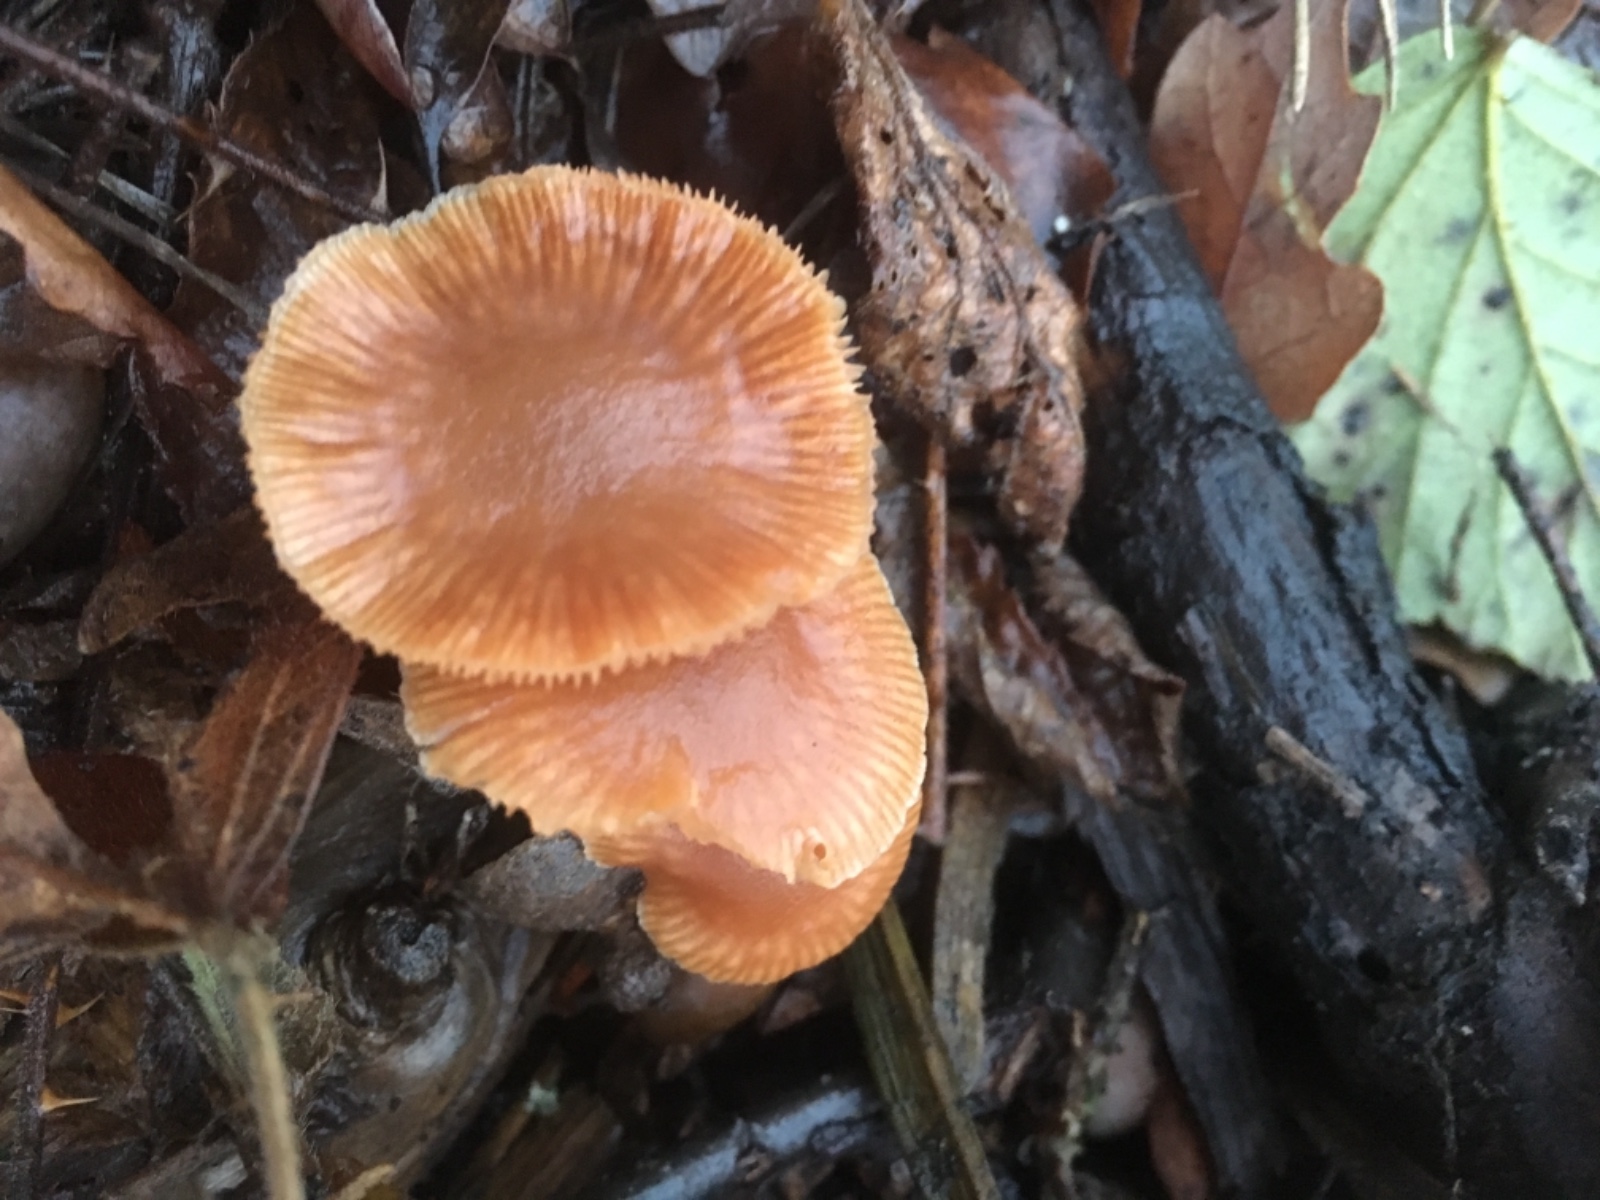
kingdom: Fungi
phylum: Basidiomycota
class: Agaricomycetes
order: Agaricales
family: Tubariaceae
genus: Tubaria
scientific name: Tubaria furfuracea
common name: kliddet fnughat
